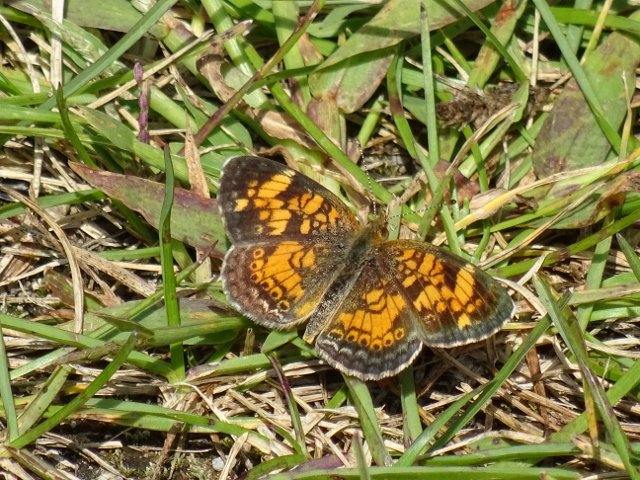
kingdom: Animalia
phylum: Arthropoda
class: Insecta
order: Lepidoptera
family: Nymphalidae
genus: Phyciodes
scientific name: Phyciodes tharos
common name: Pearl Crescent
